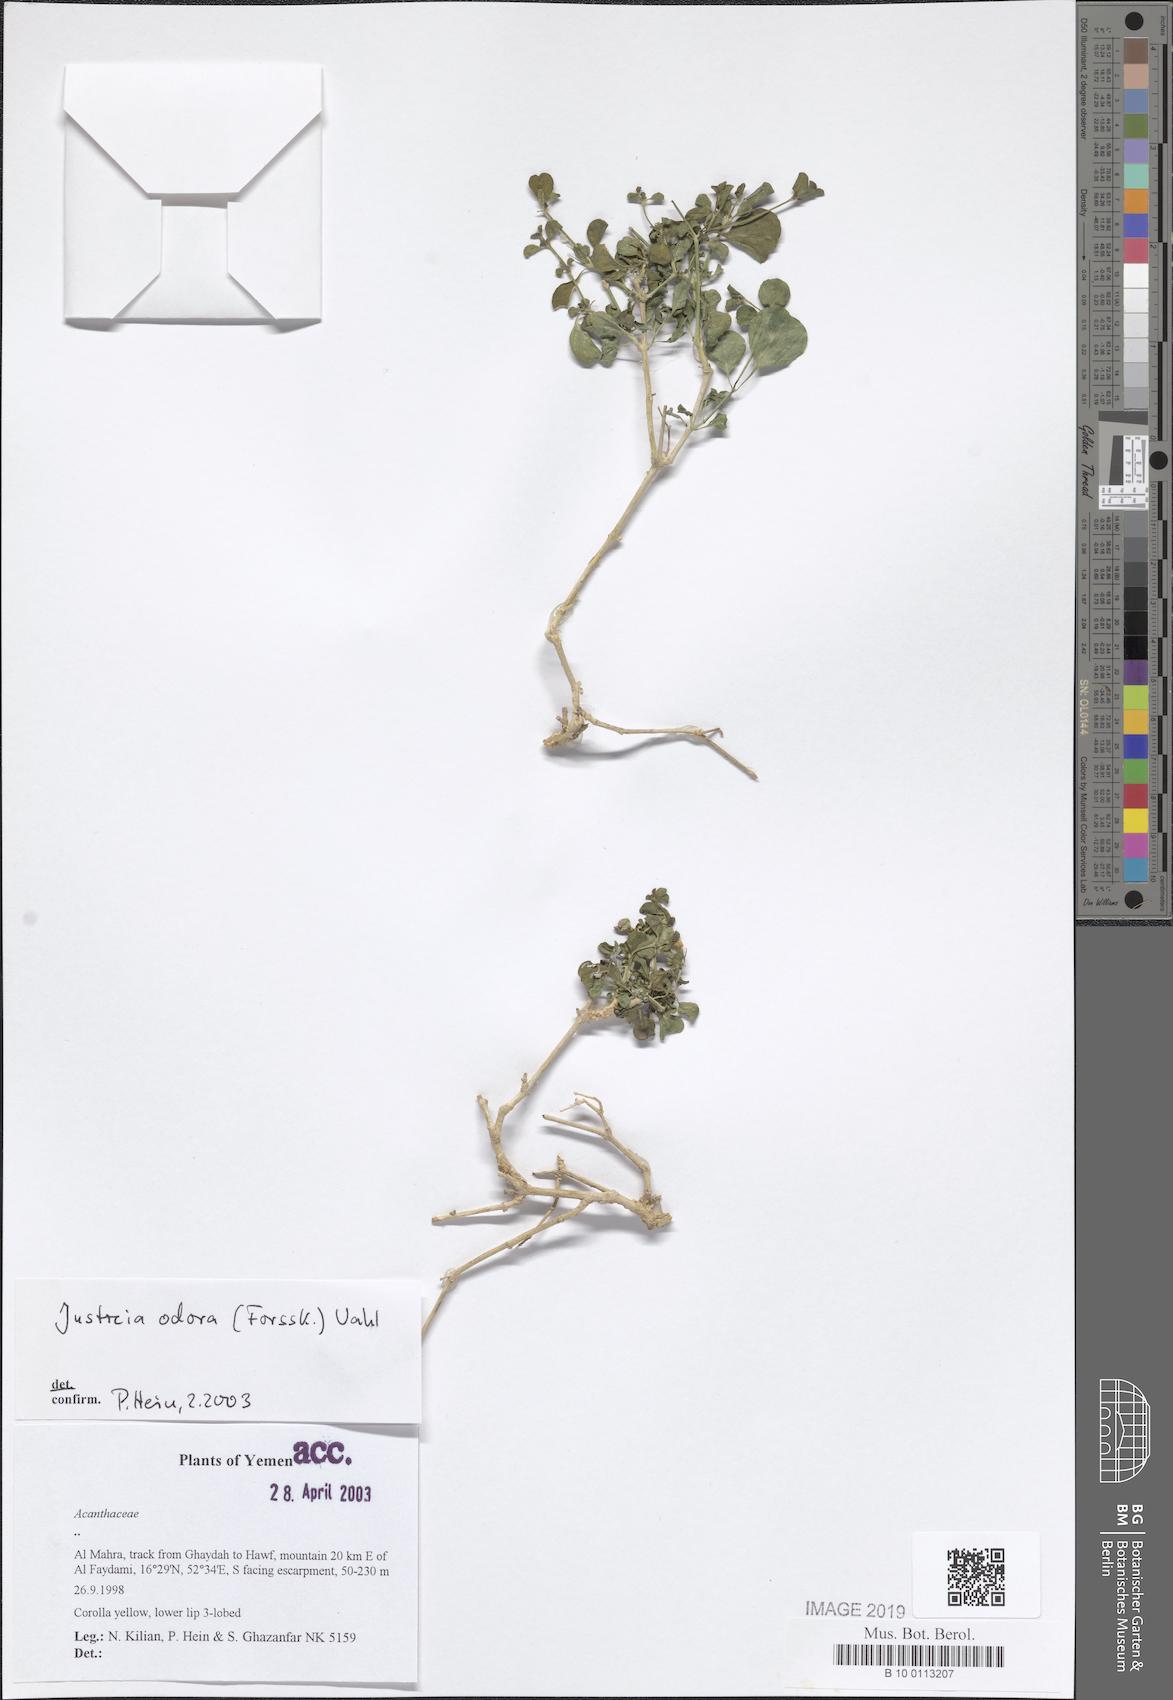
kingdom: Plantae
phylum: Tracheophyta
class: Magnoliopsida
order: Lamiales
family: Acanthaceae
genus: Justicia
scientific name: Justicia odora
